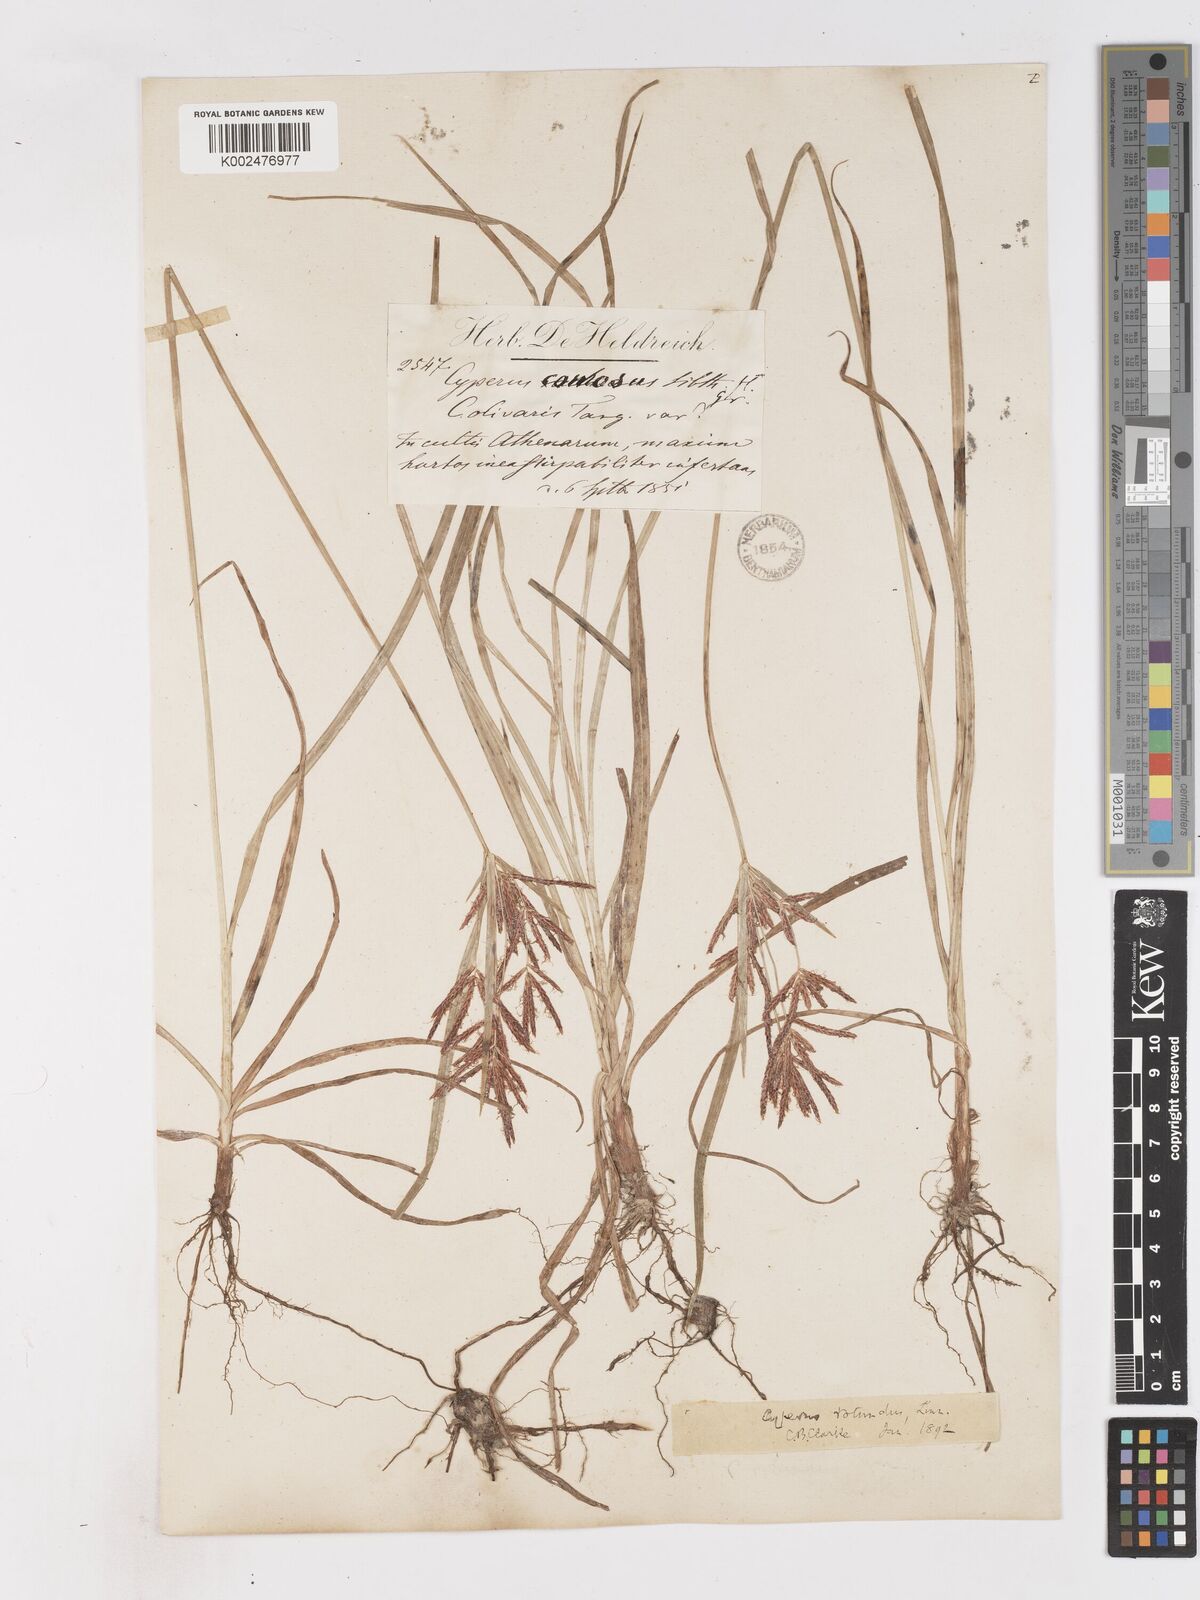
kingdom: Plantae
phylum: Tracheophyta
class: Liliopsida
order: Poales
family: Cyperaceae
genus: Cyperus
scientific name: Cyperus rotundus
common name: Nutgrass
